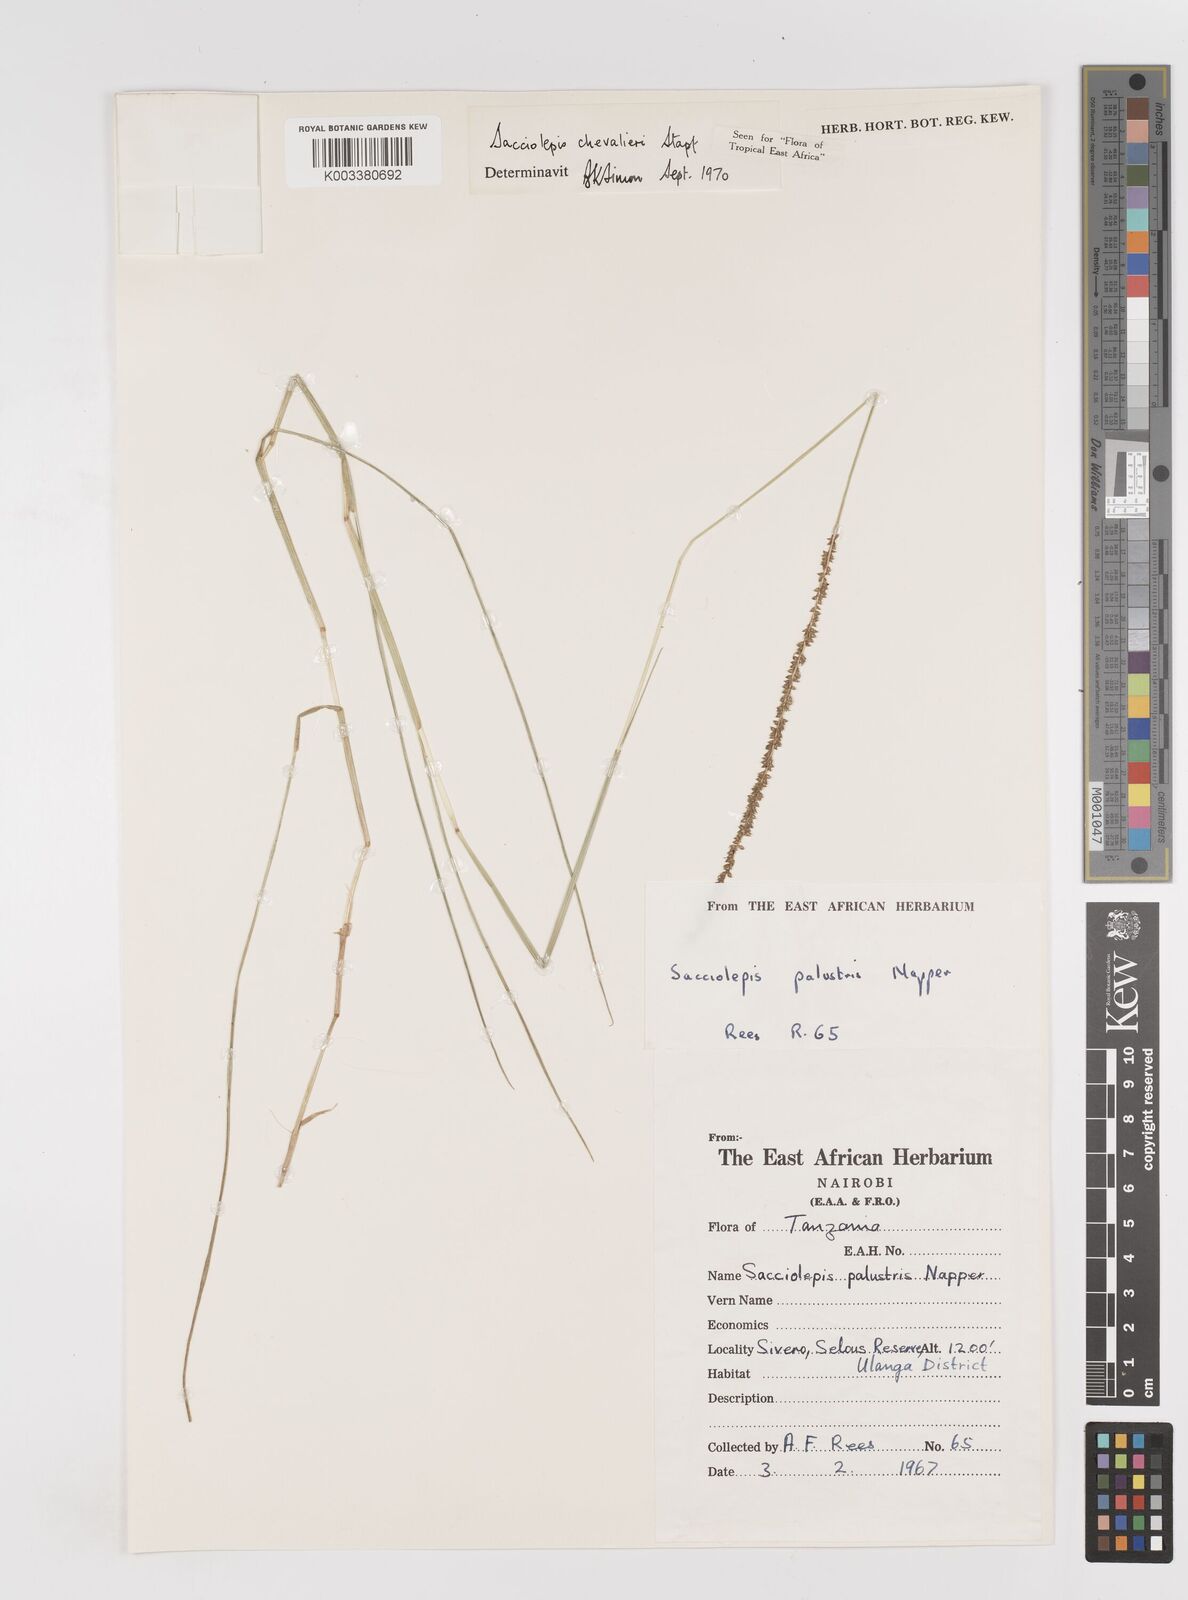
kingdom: Plantae
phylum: Tracheophyta
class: Liliopsida
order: Poales
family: Poaceae
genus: Sacciolepis
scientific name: Sacciolepis chevalieri
